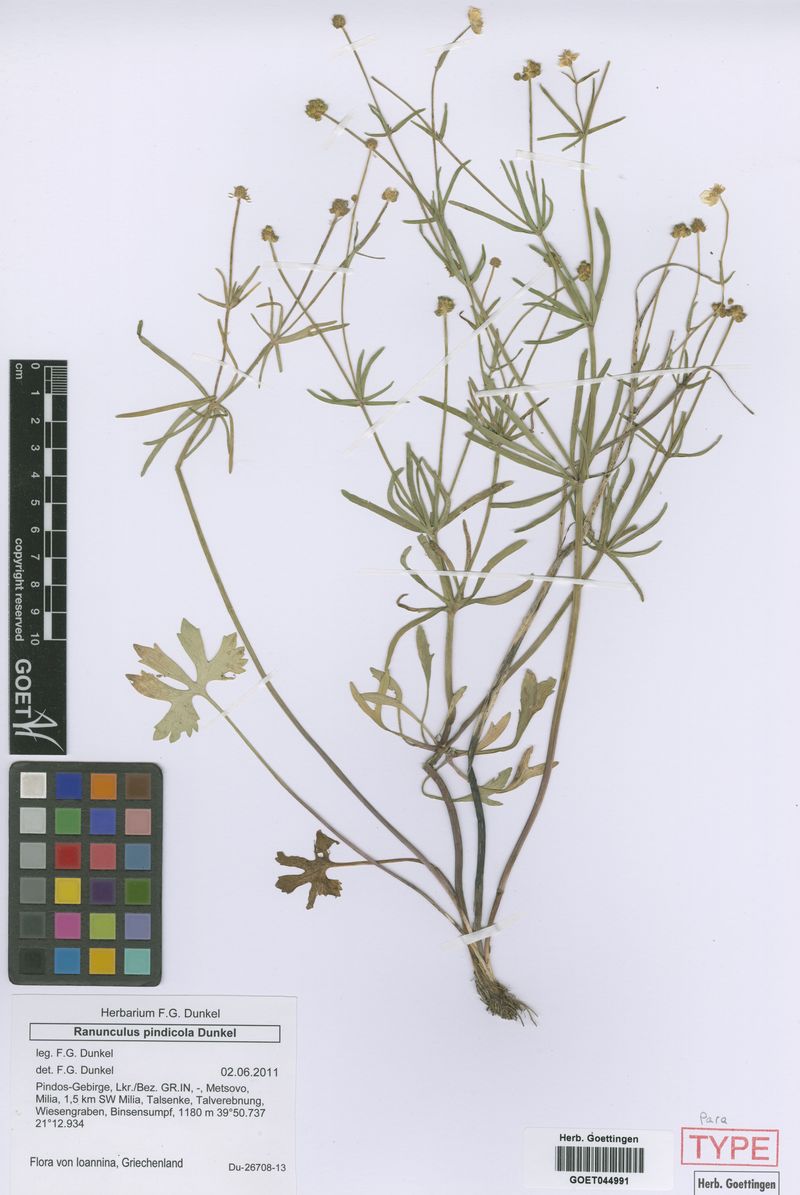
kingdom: Plantae
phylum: Tracheophyta
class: Magnoliopsida
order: Ranunculales
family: Ranunculaceae
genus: Ranunculus
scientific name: Ranunculus pindicola
